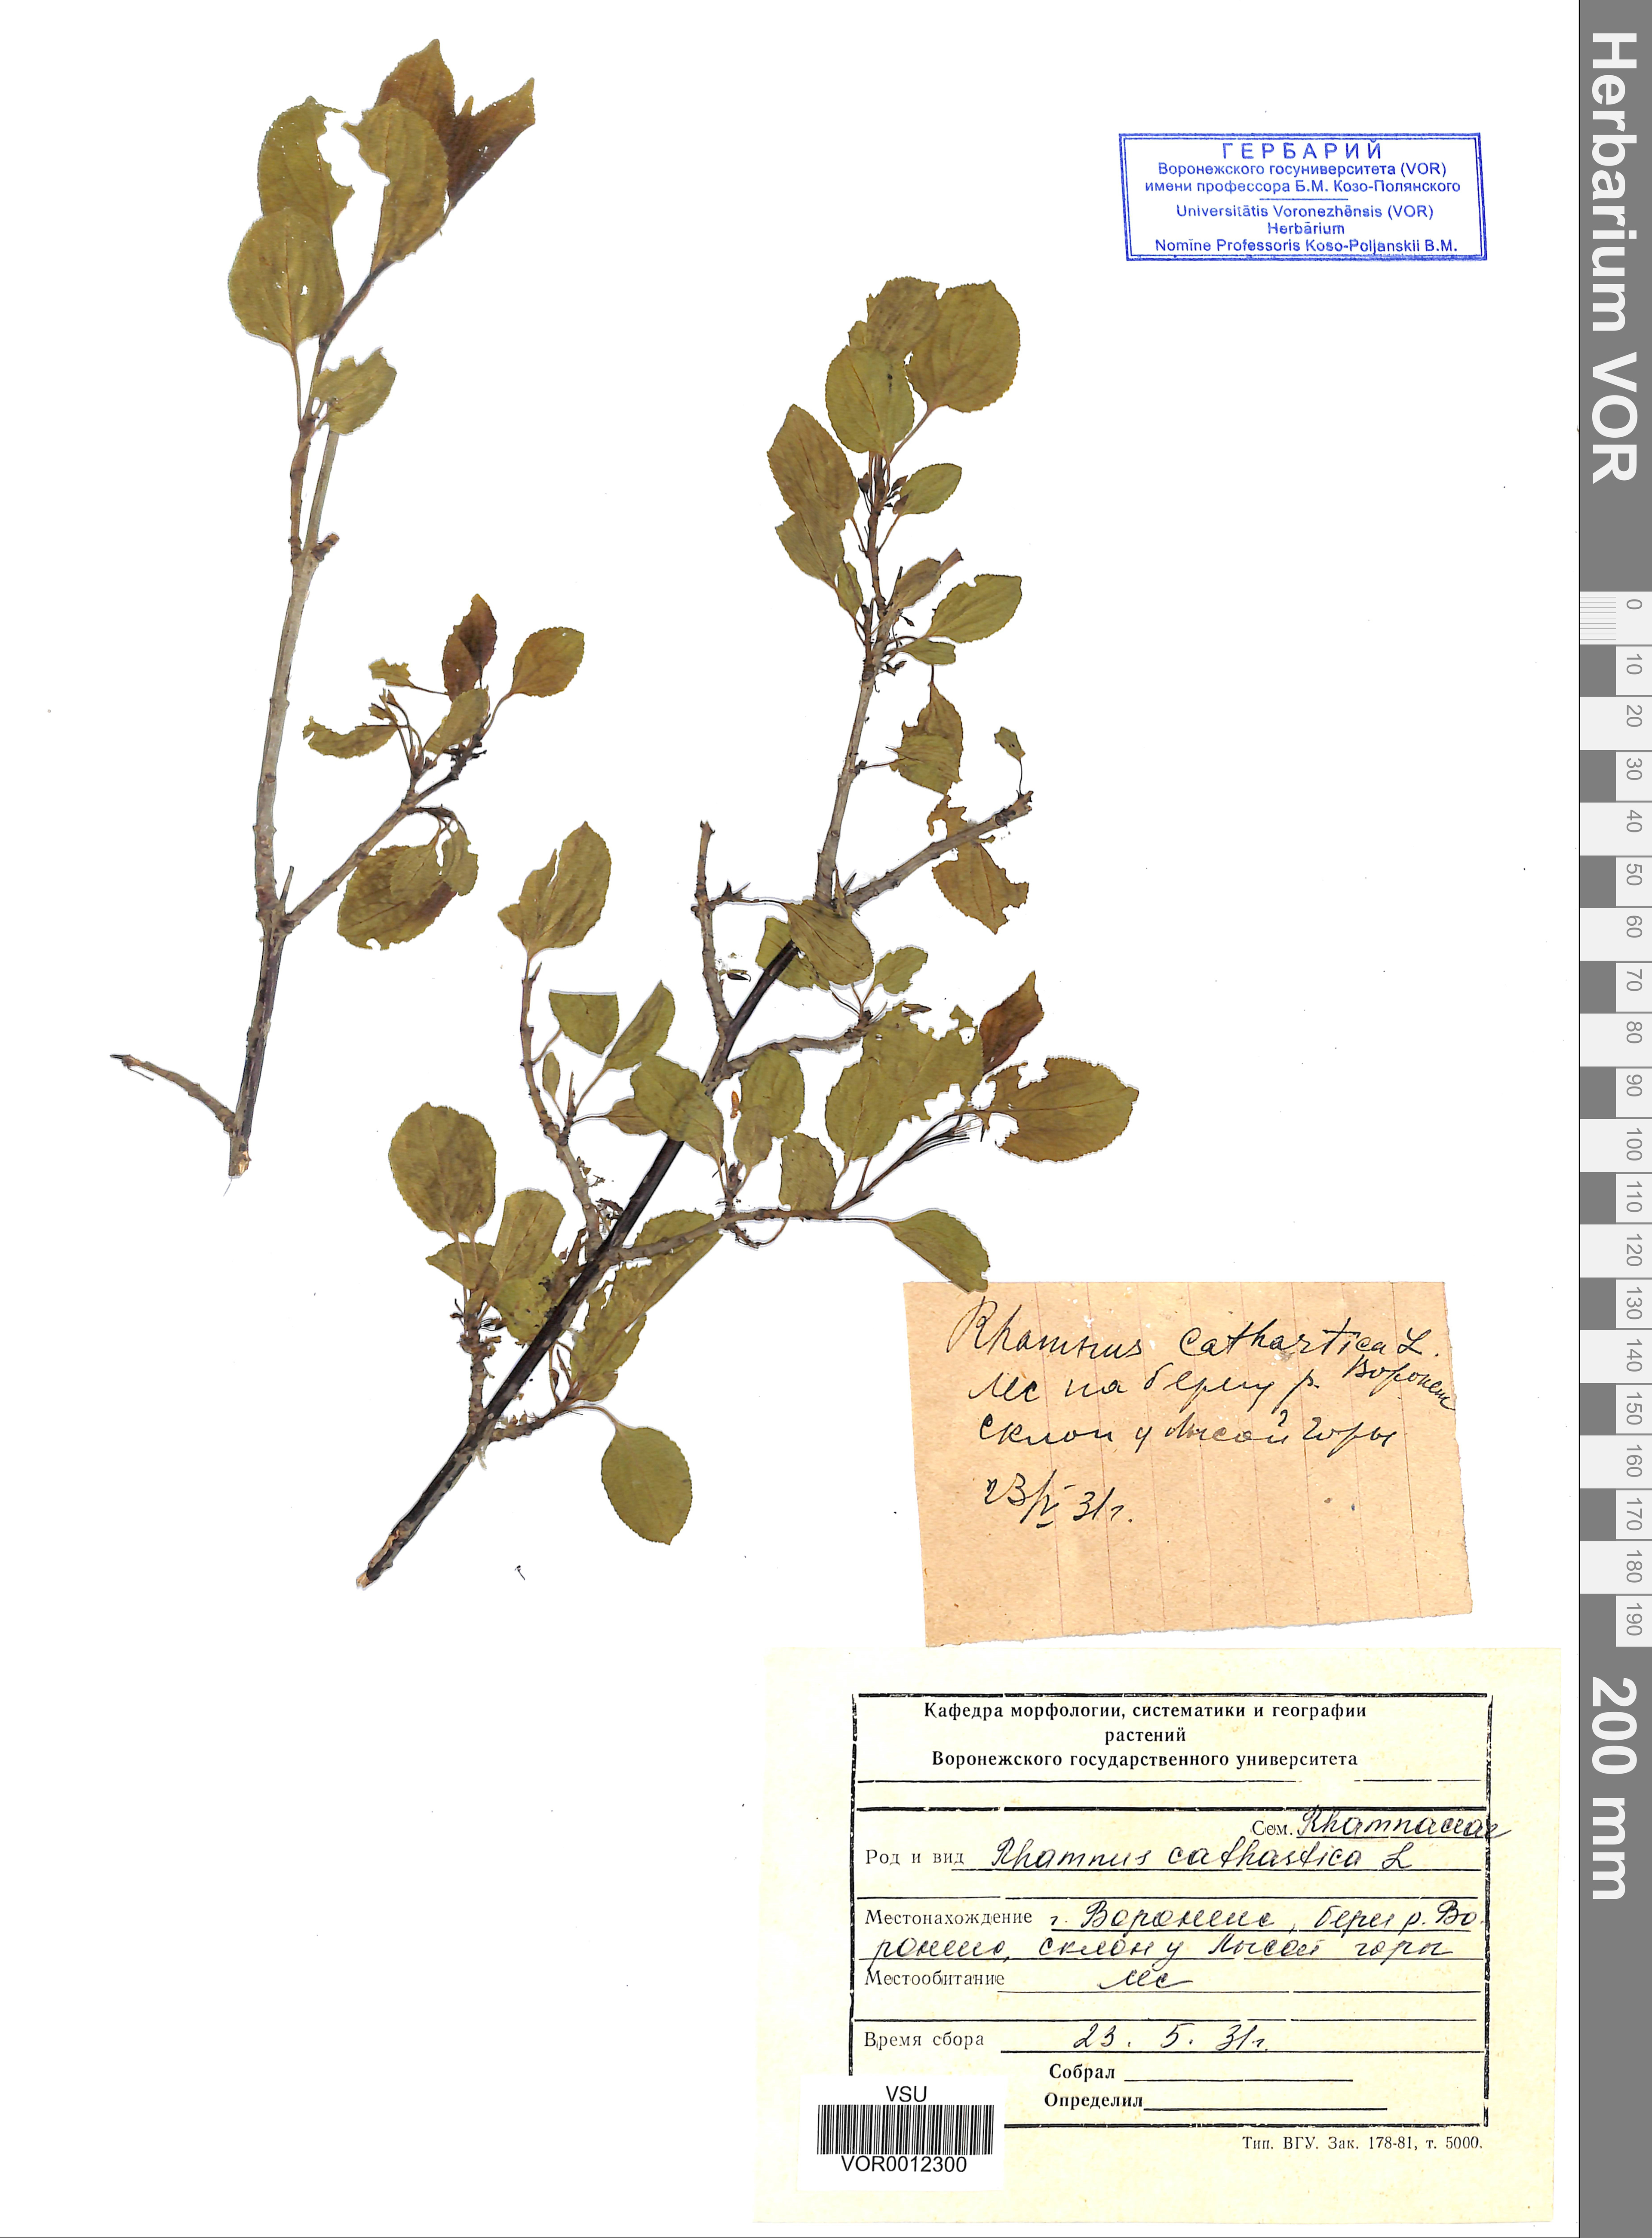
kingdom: Plantae
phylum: Tracheophyta
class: Magnoliopsida
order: Rosales
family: Rhamnaceae
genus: Rhamnus
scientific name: Rhamnus cathartica
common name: Common buckthorn
